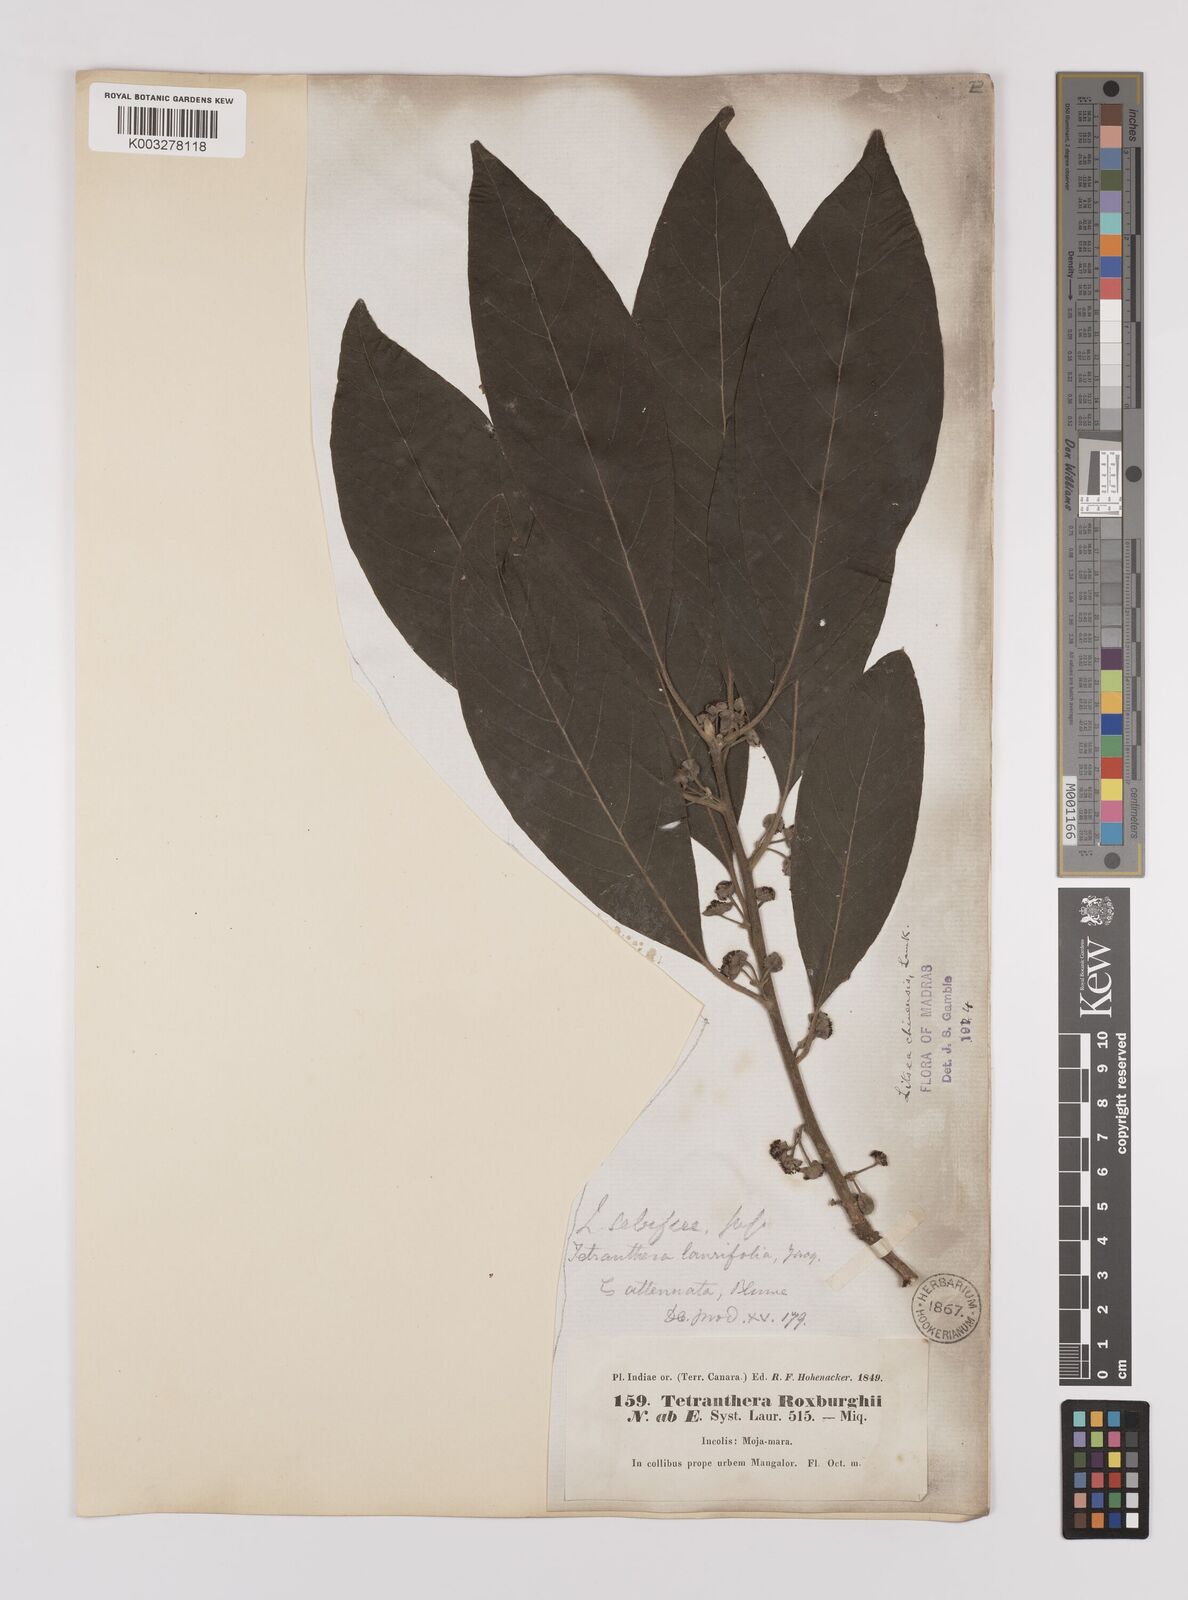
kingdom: Plantae
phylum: Tracheophyta
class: Magnoliopsida
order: Laurales
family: Lauraceae
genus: Litsea
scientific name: Litsea
